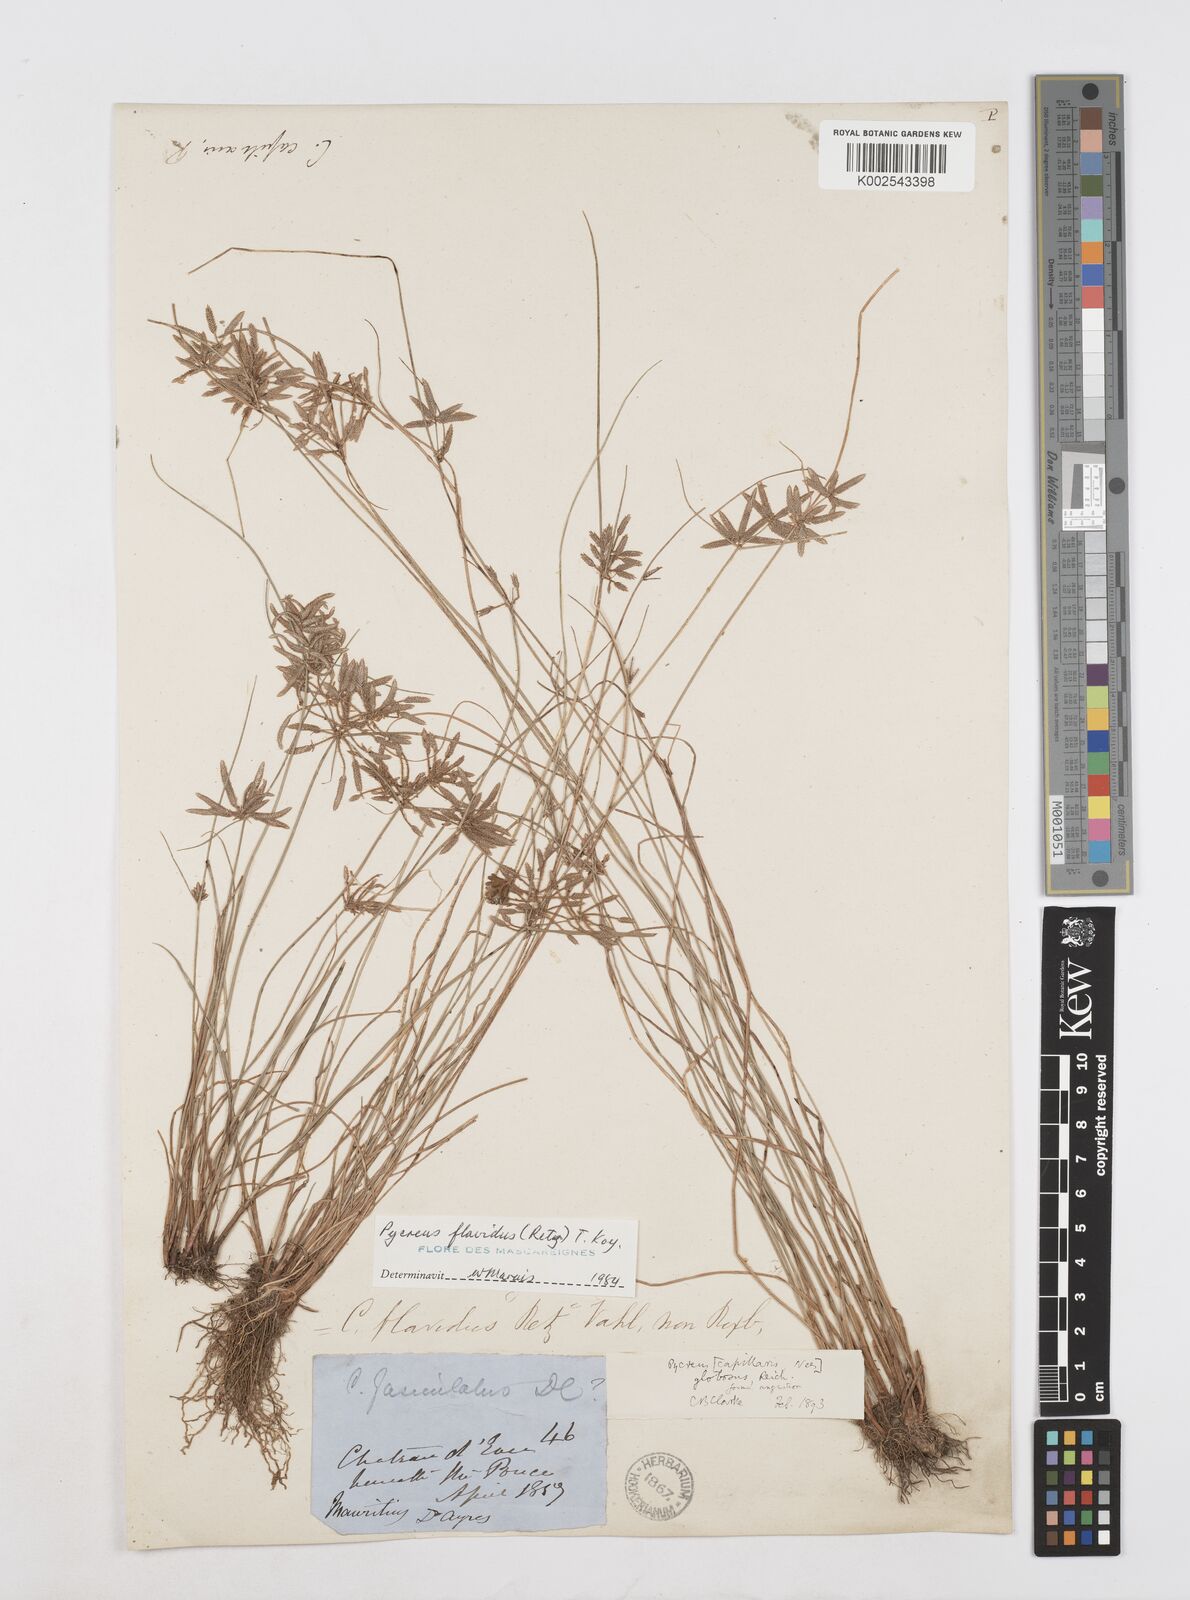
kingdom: Plantae
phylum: Tracheophyta
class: Liliopsida
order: Poales
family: Cyperaceae
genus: Cyperus
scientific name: Cyperus flavidus
